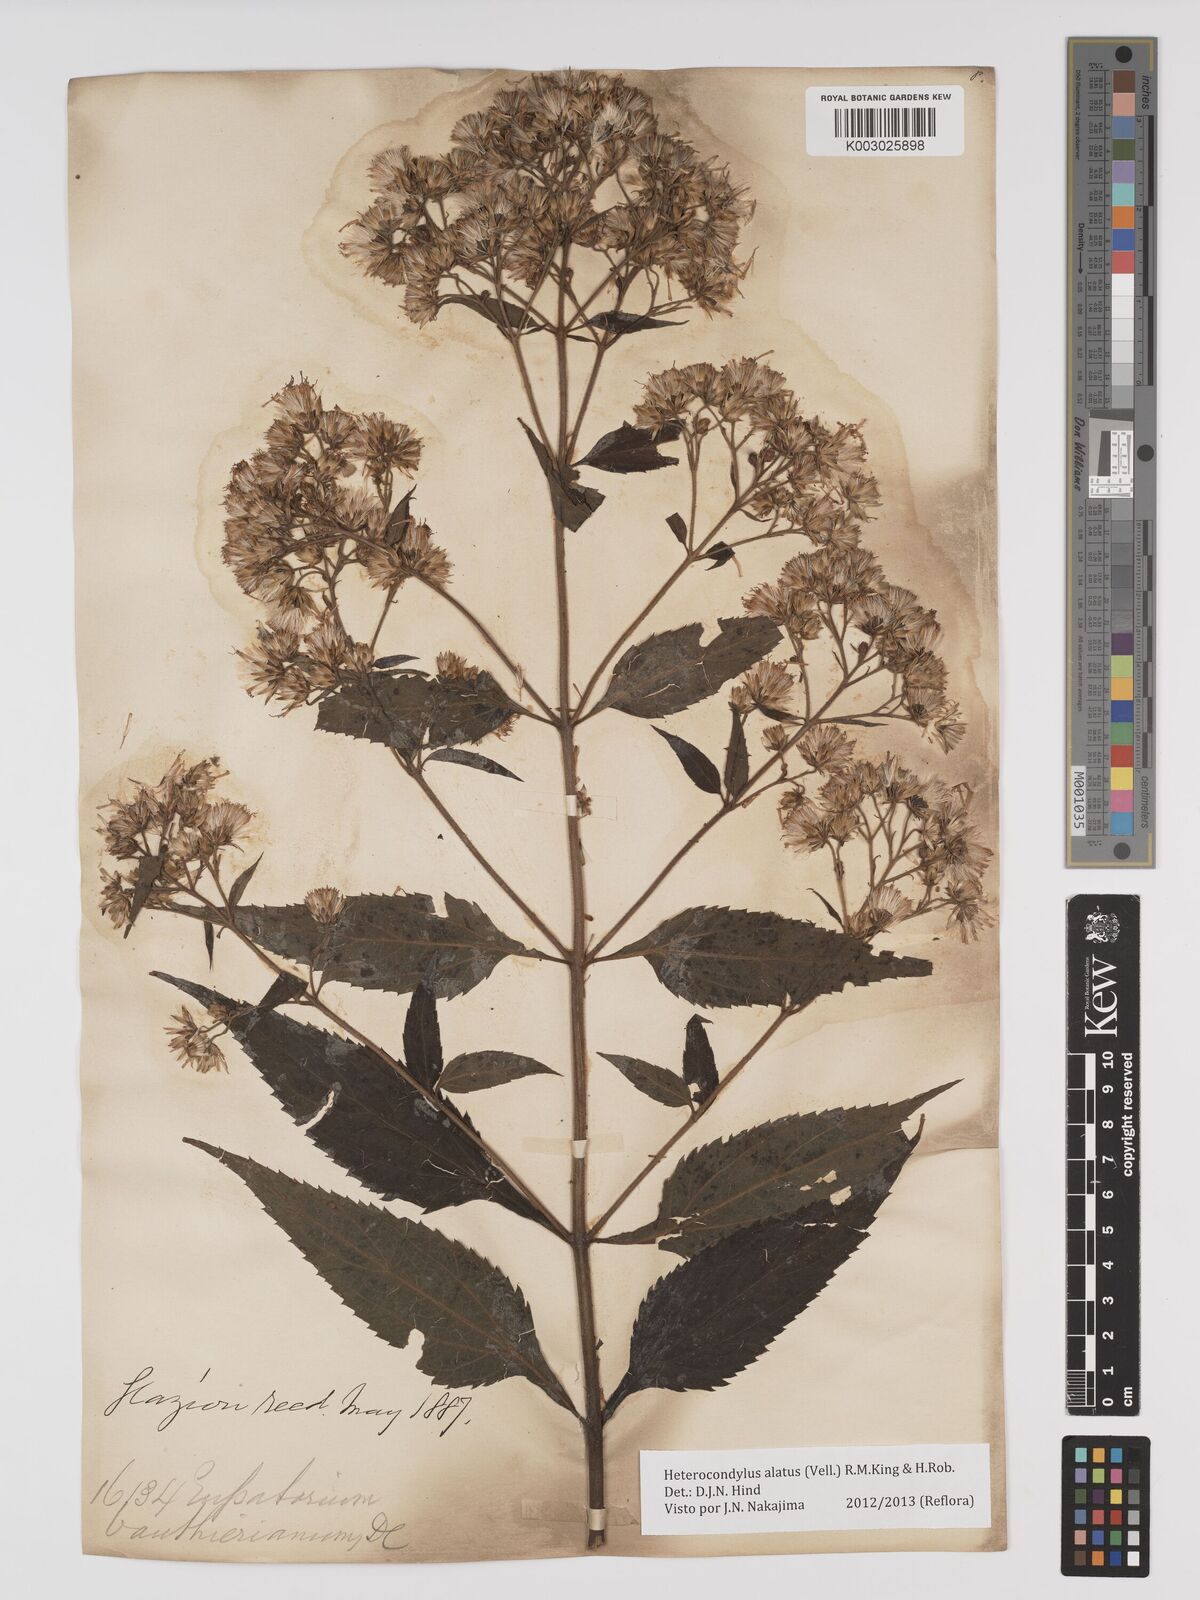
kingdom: Plantae
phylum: Tracheophyta
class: Magnoliopsida
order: Asterales
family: Asteraceae
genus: Heterocondylus
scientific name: Heterocondylus alatus
